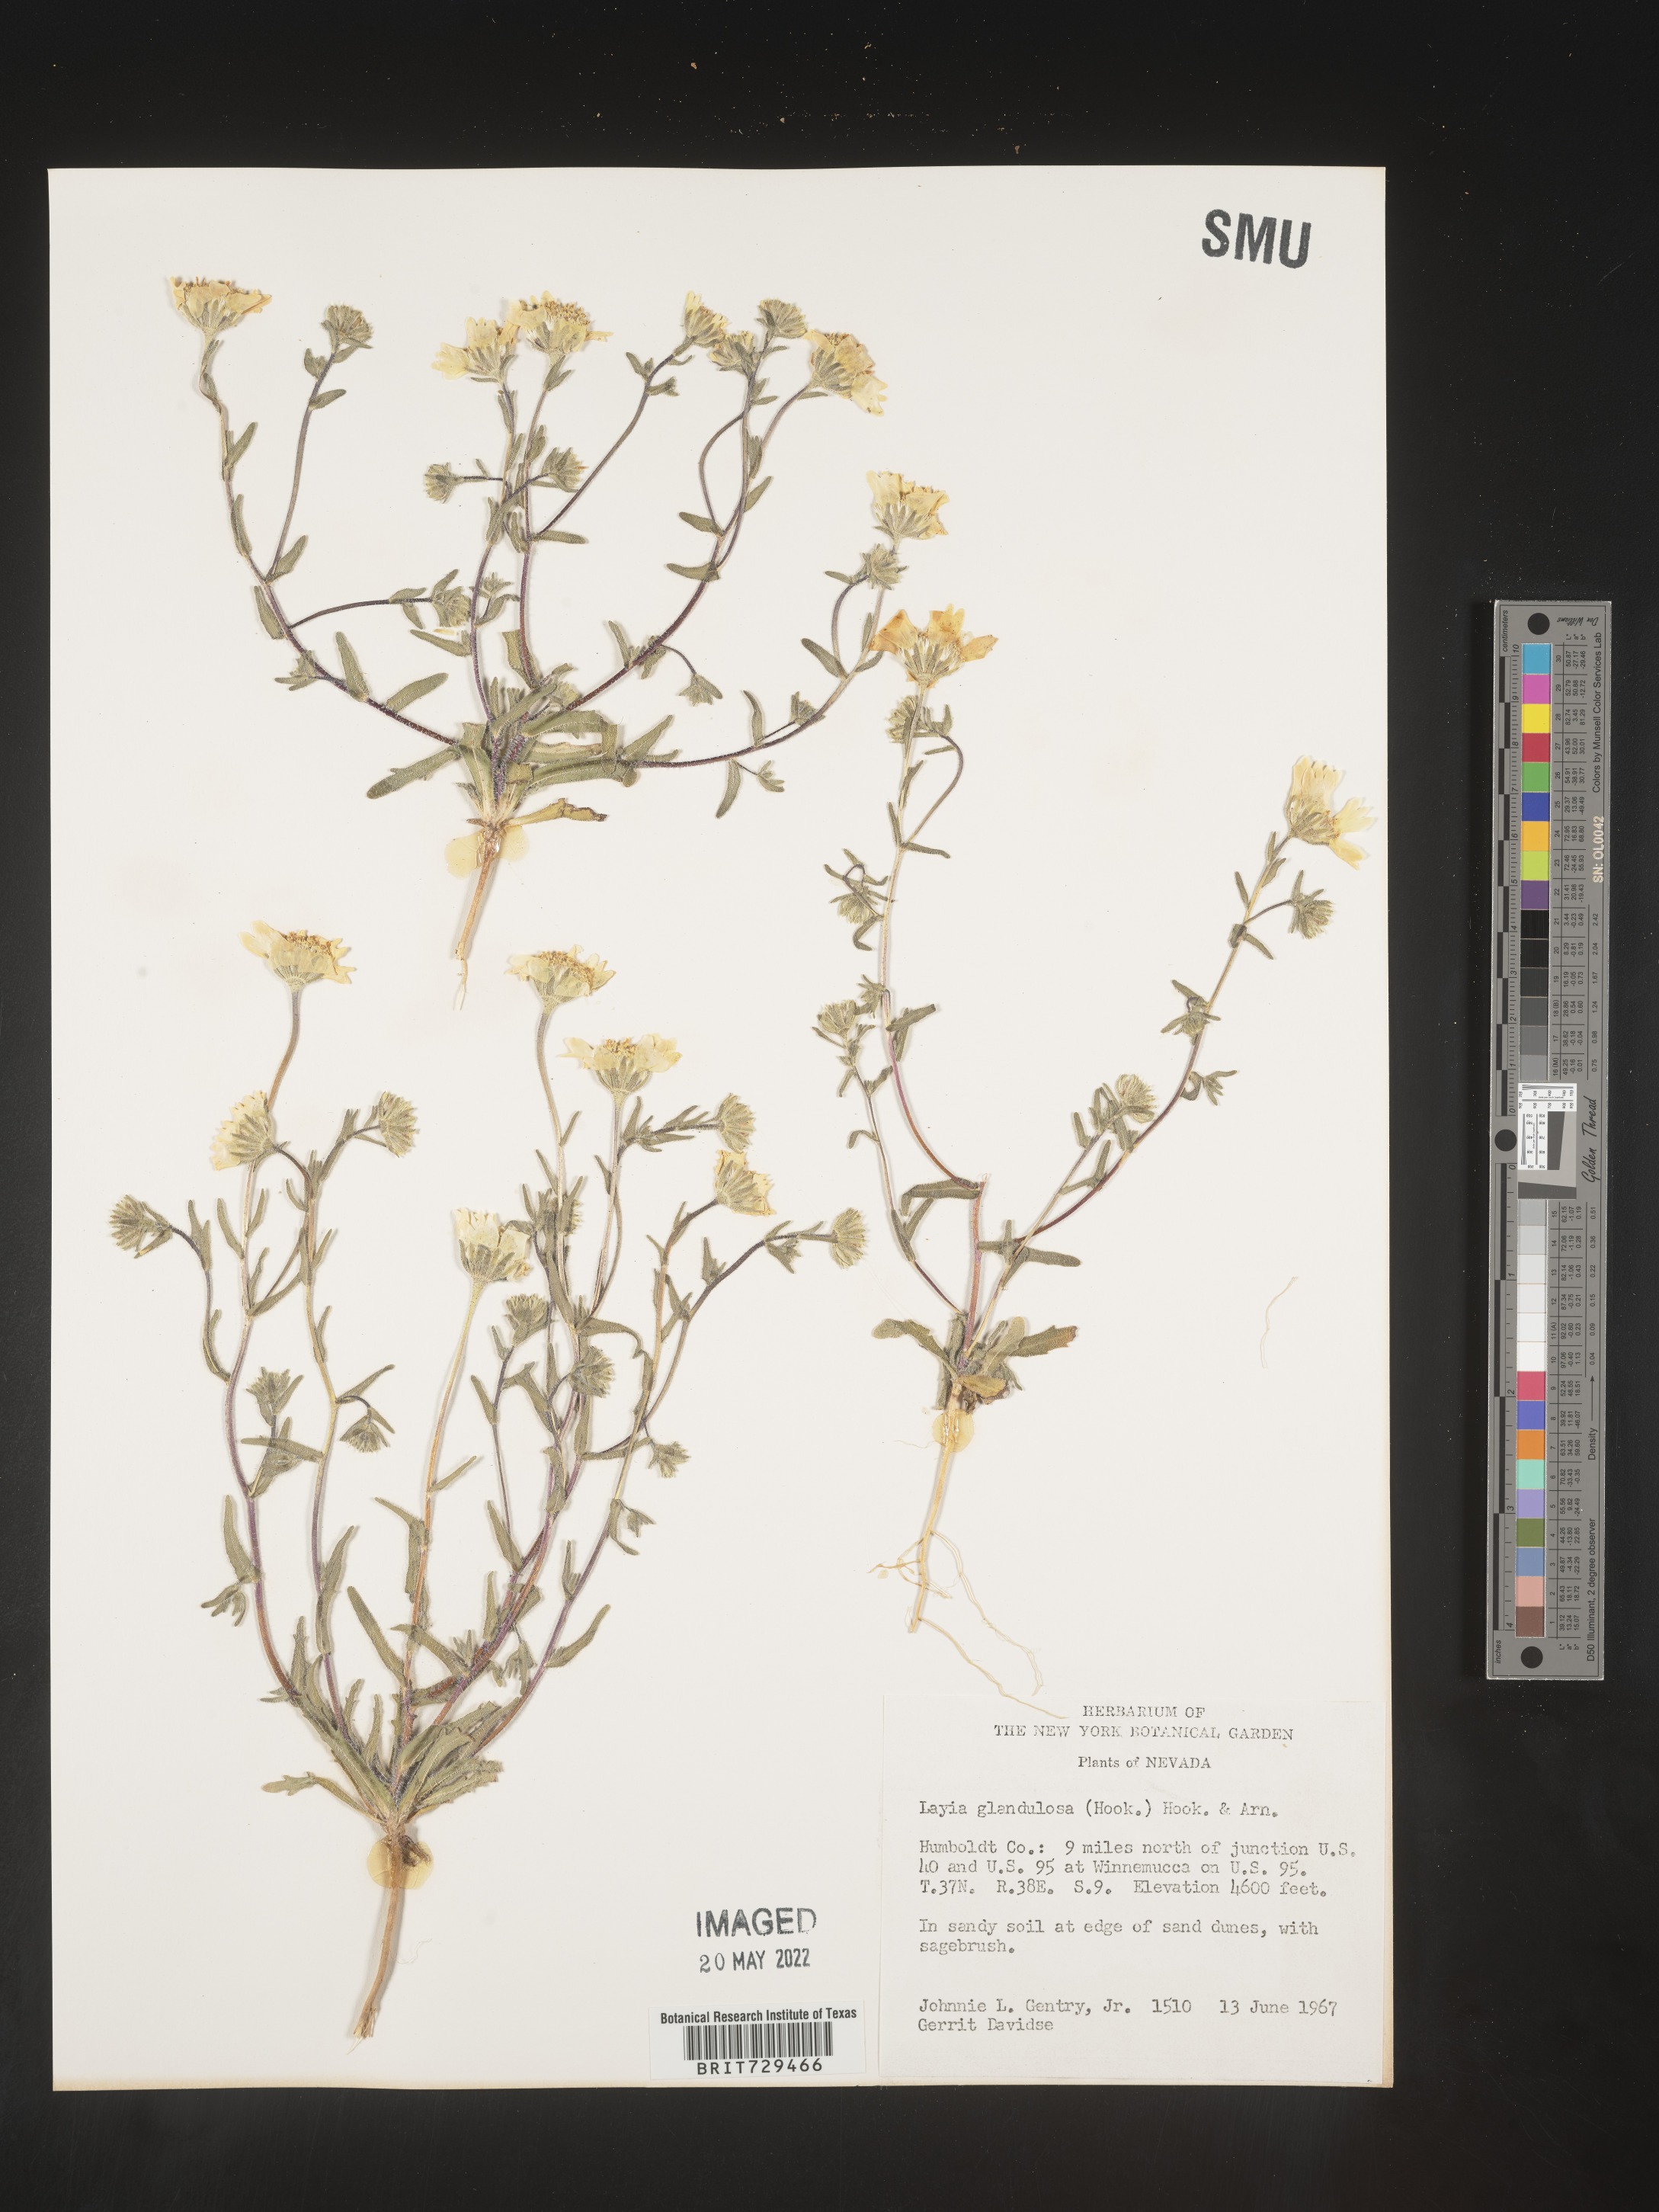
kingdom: Plantae
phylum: Tracheophyta
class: Magnoliopsida
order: Asterales
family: Asteraceae
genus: Layia
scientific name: Layia
